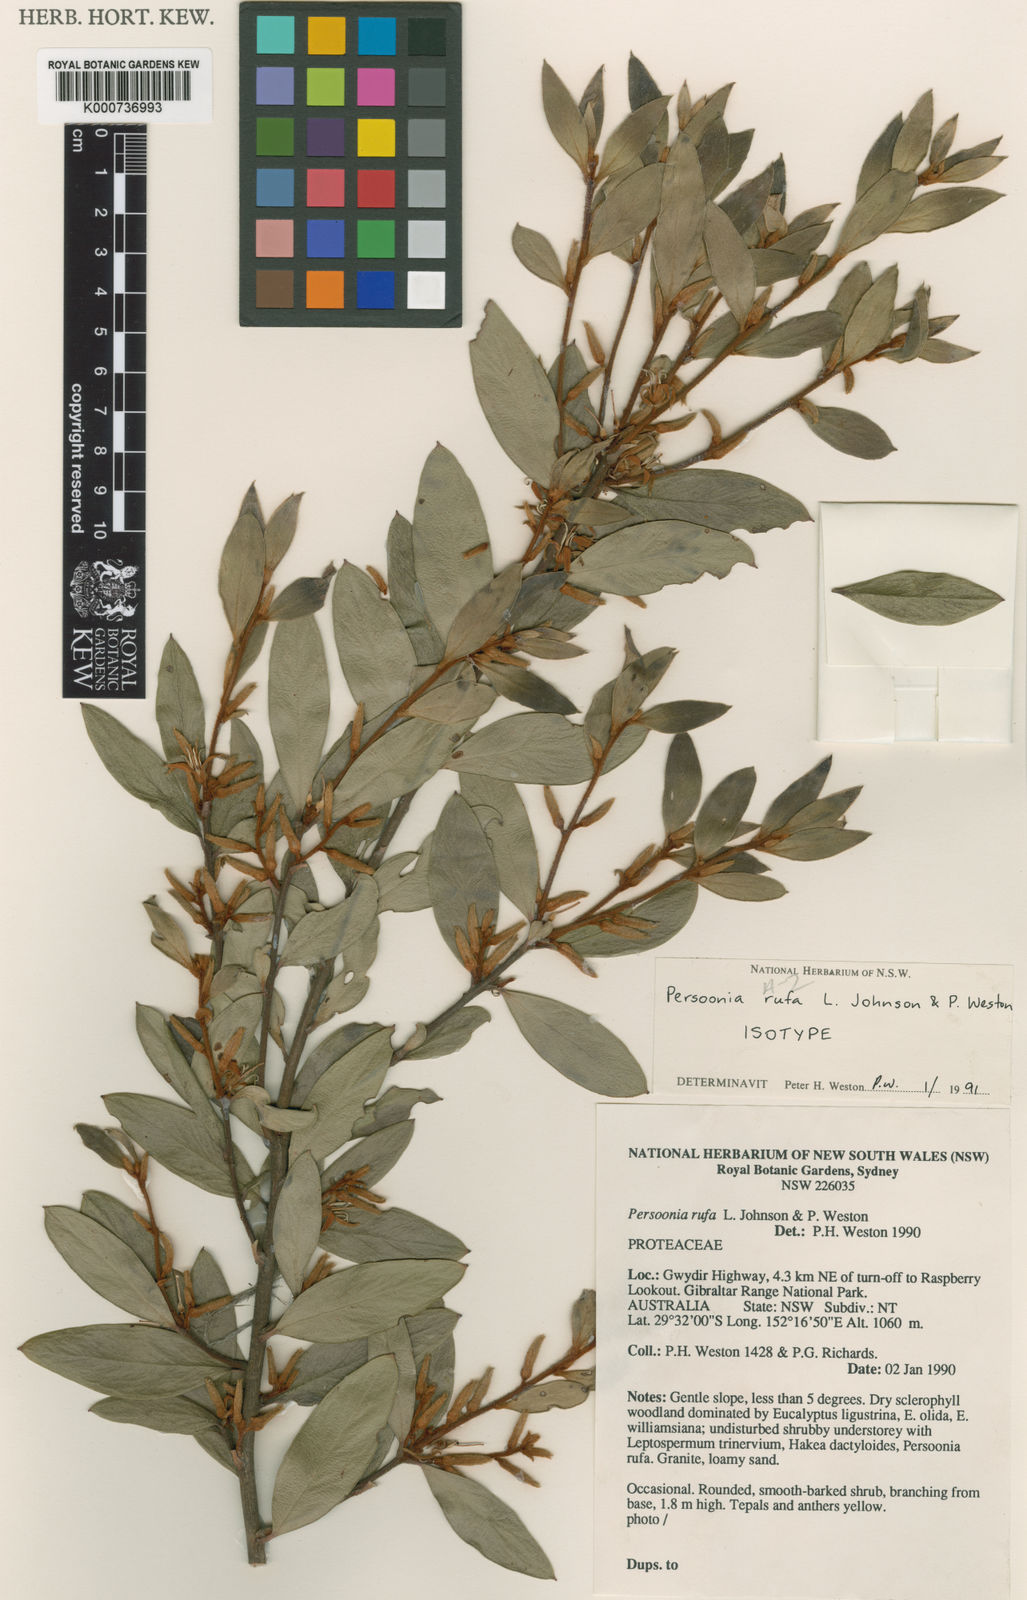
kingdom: Plantae
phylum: Tracheophyta
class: Magnoliopsida
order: Proteales
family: Proteaceae
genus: Persoonia
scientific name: Persoonia rufa
